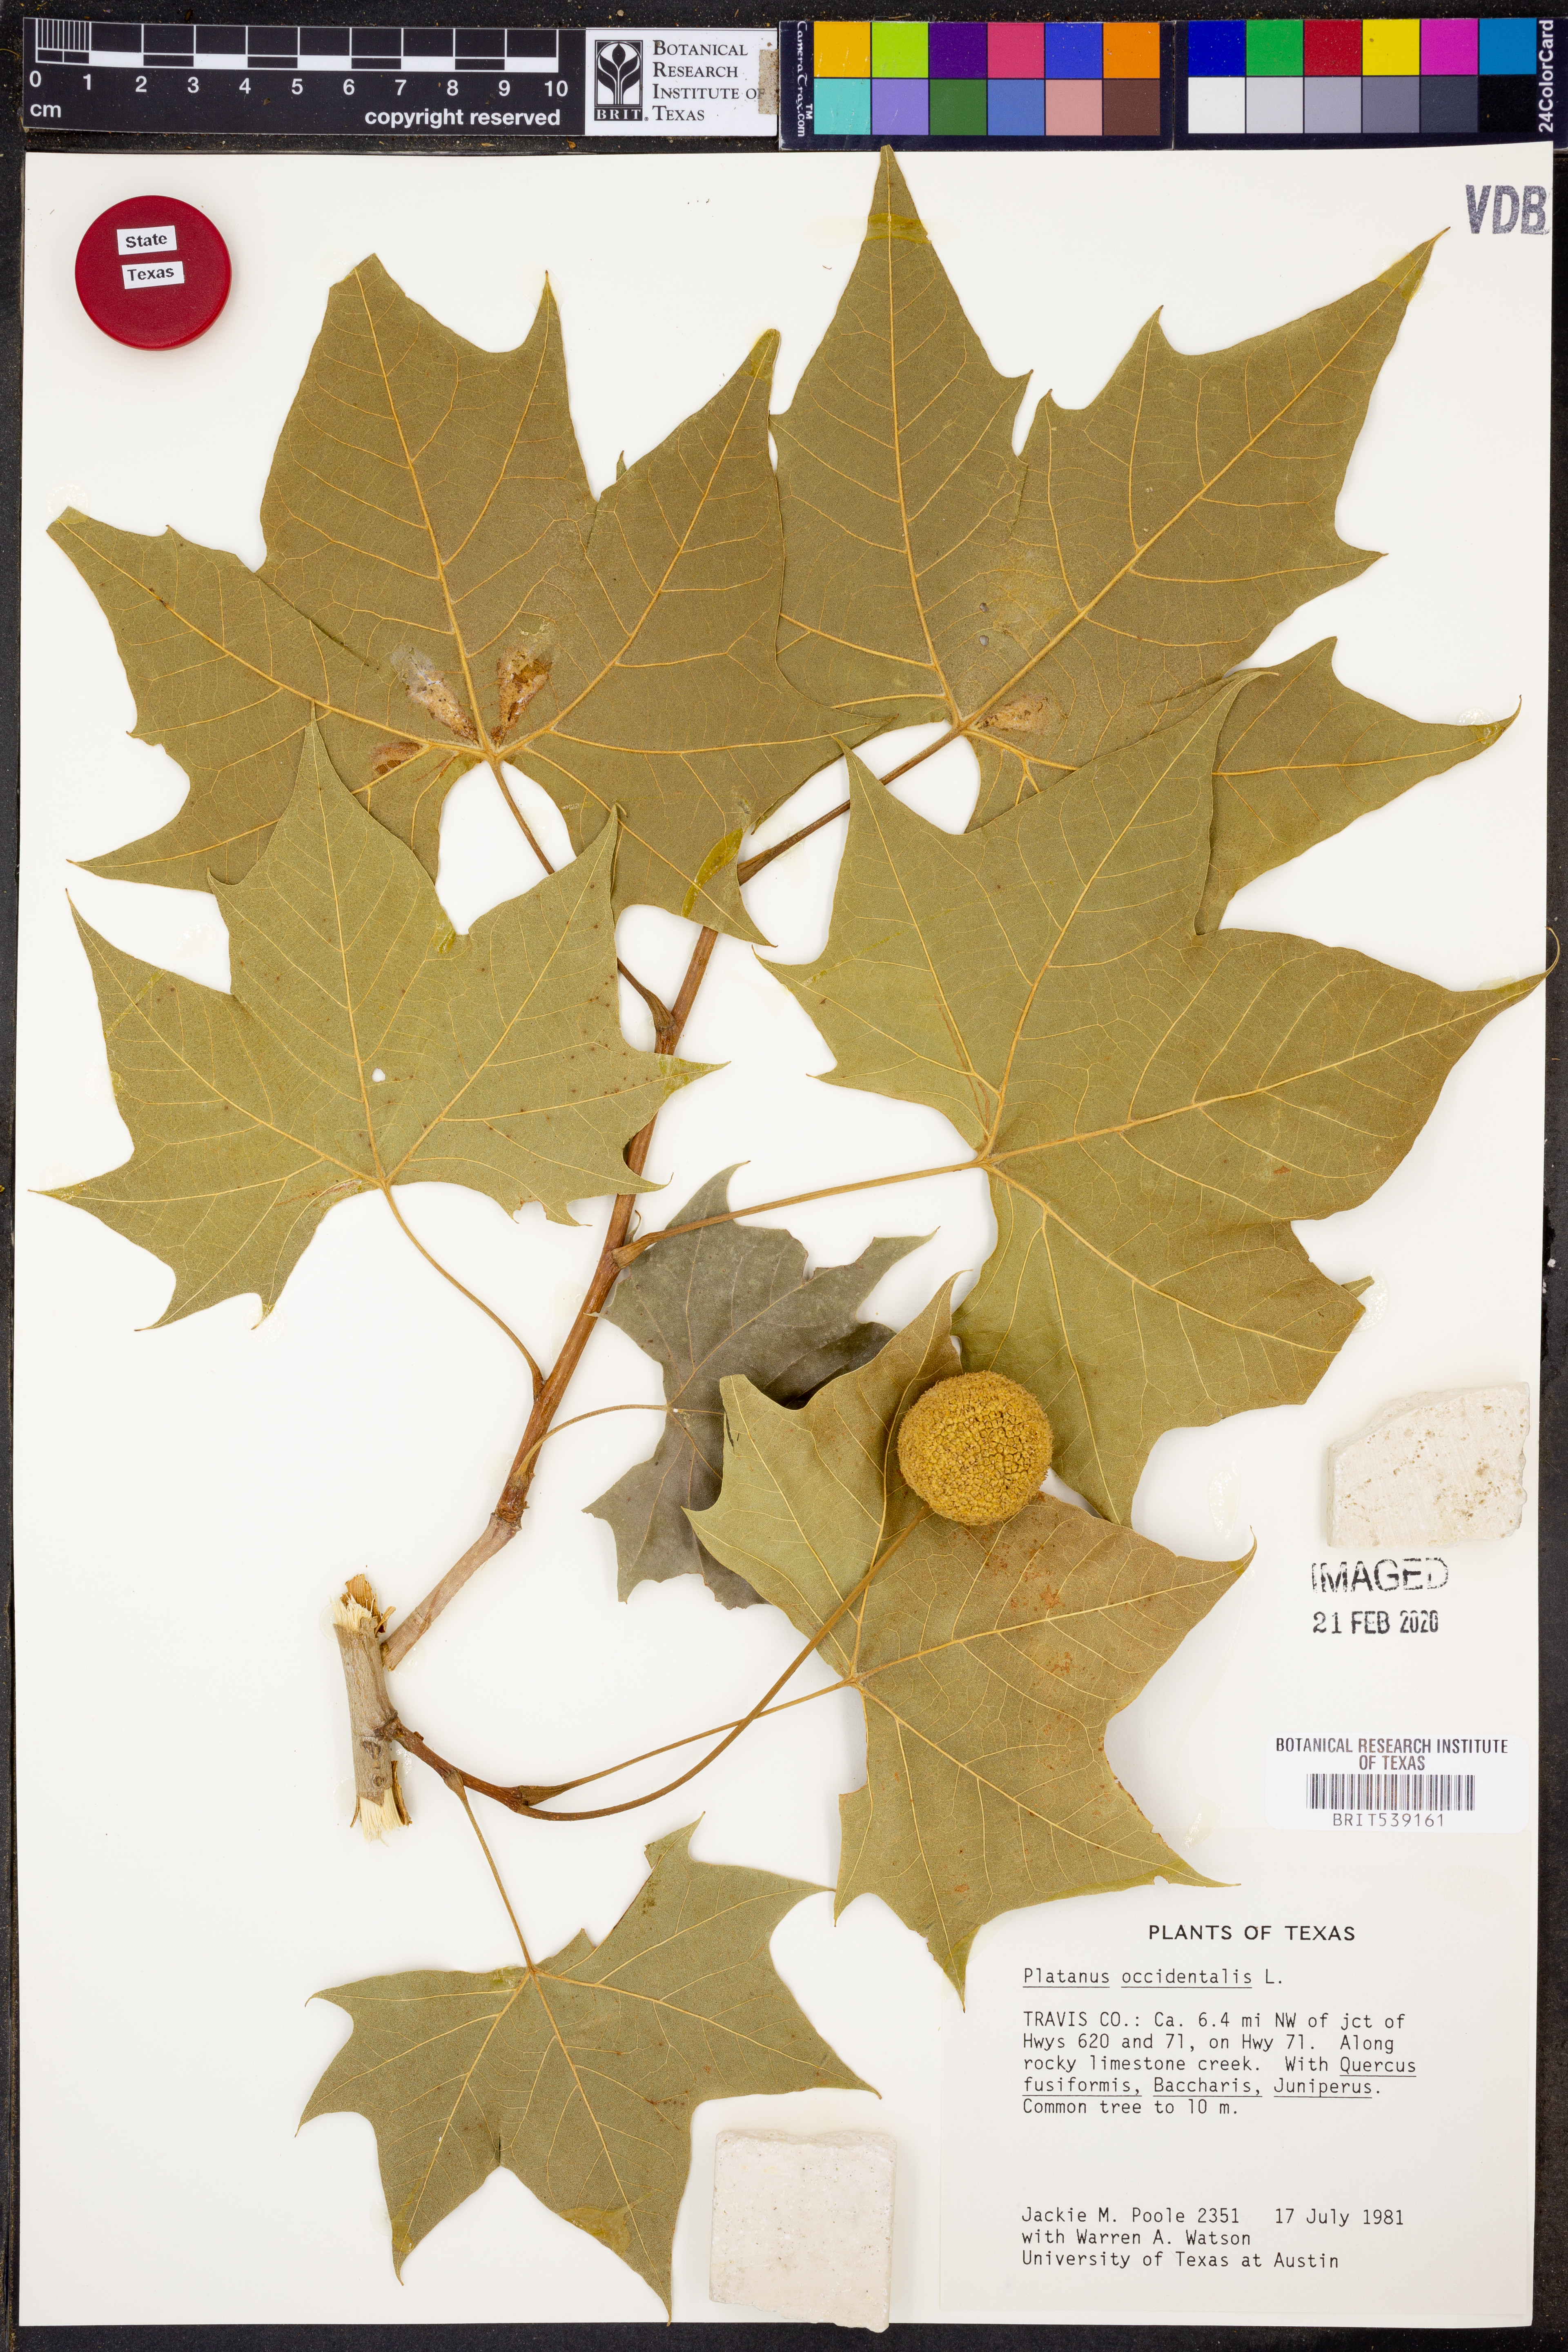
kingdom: Plantae
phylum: Tracheophyta
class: Magnoliopsida
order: Proteales
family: Platanaceae
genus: Platanus
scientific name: Platanus occidentalis
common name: American sycamore
